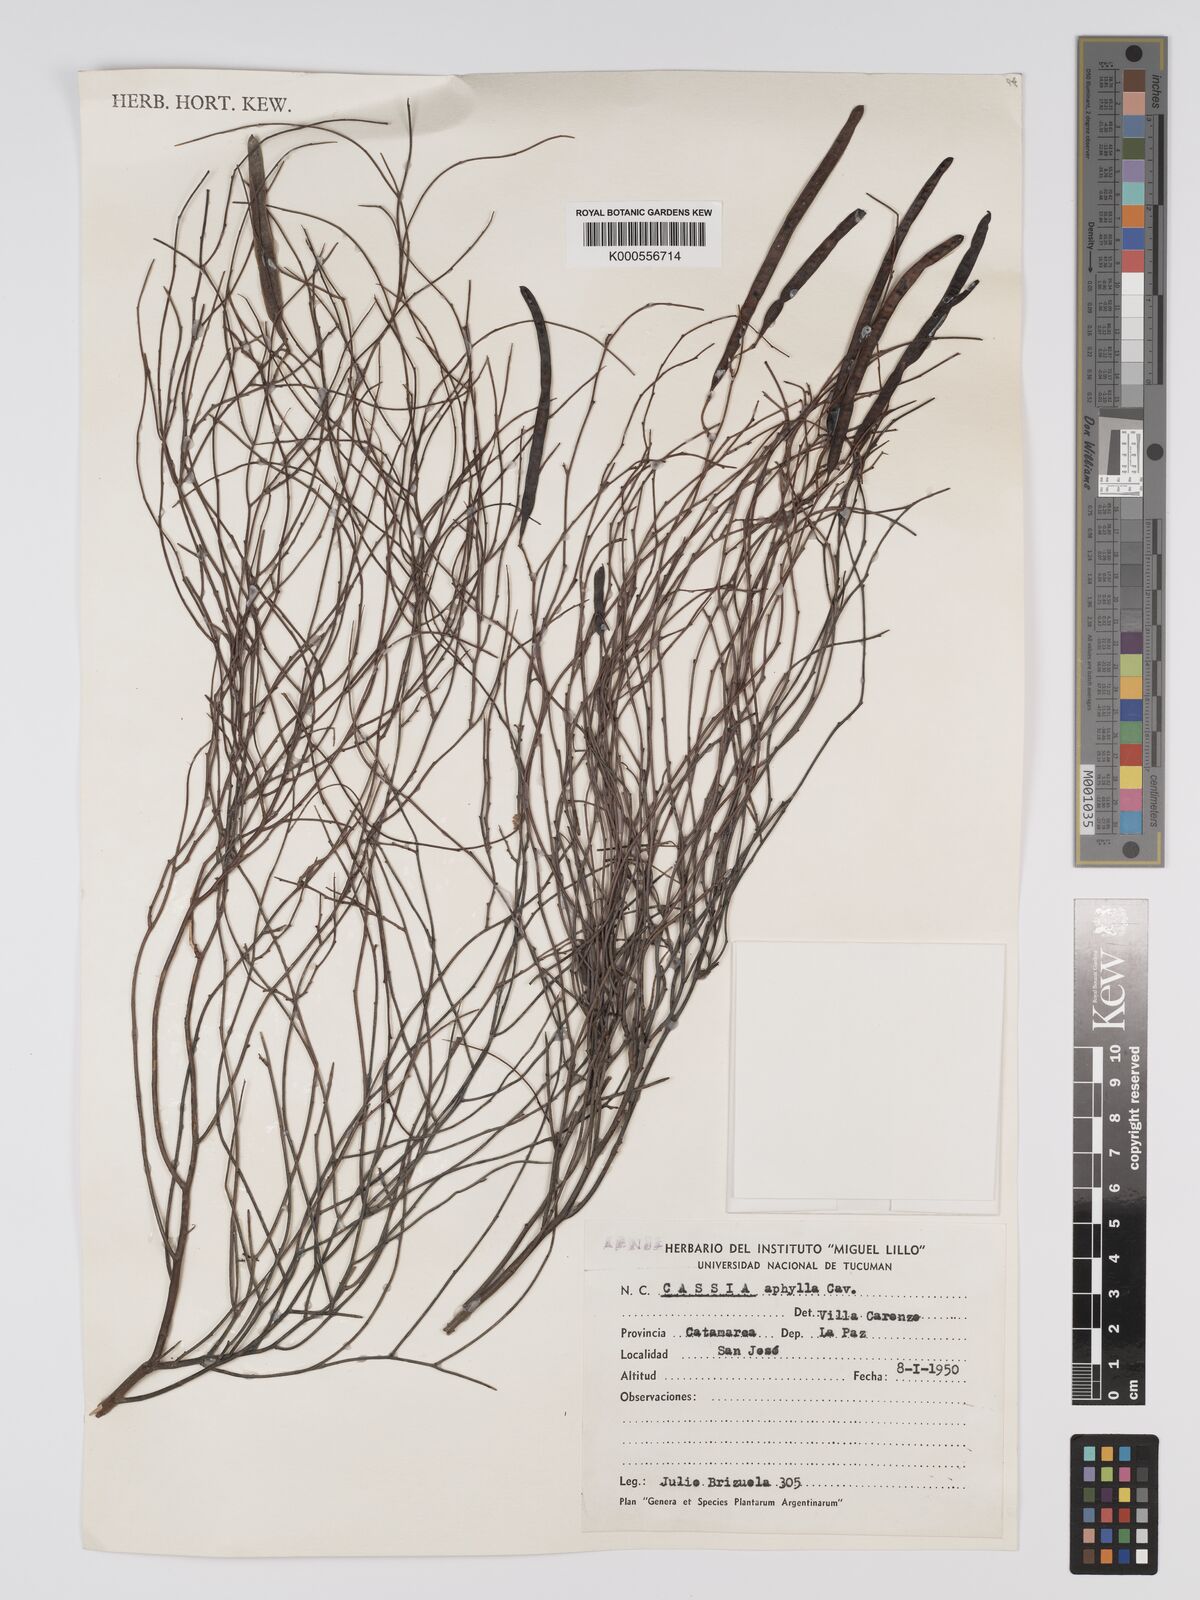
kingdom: Plantae
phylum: Tracheophyta
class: Magnoliopsida
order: Fabales
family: Fabaceae
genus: Senna
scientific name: Senna aphylla
